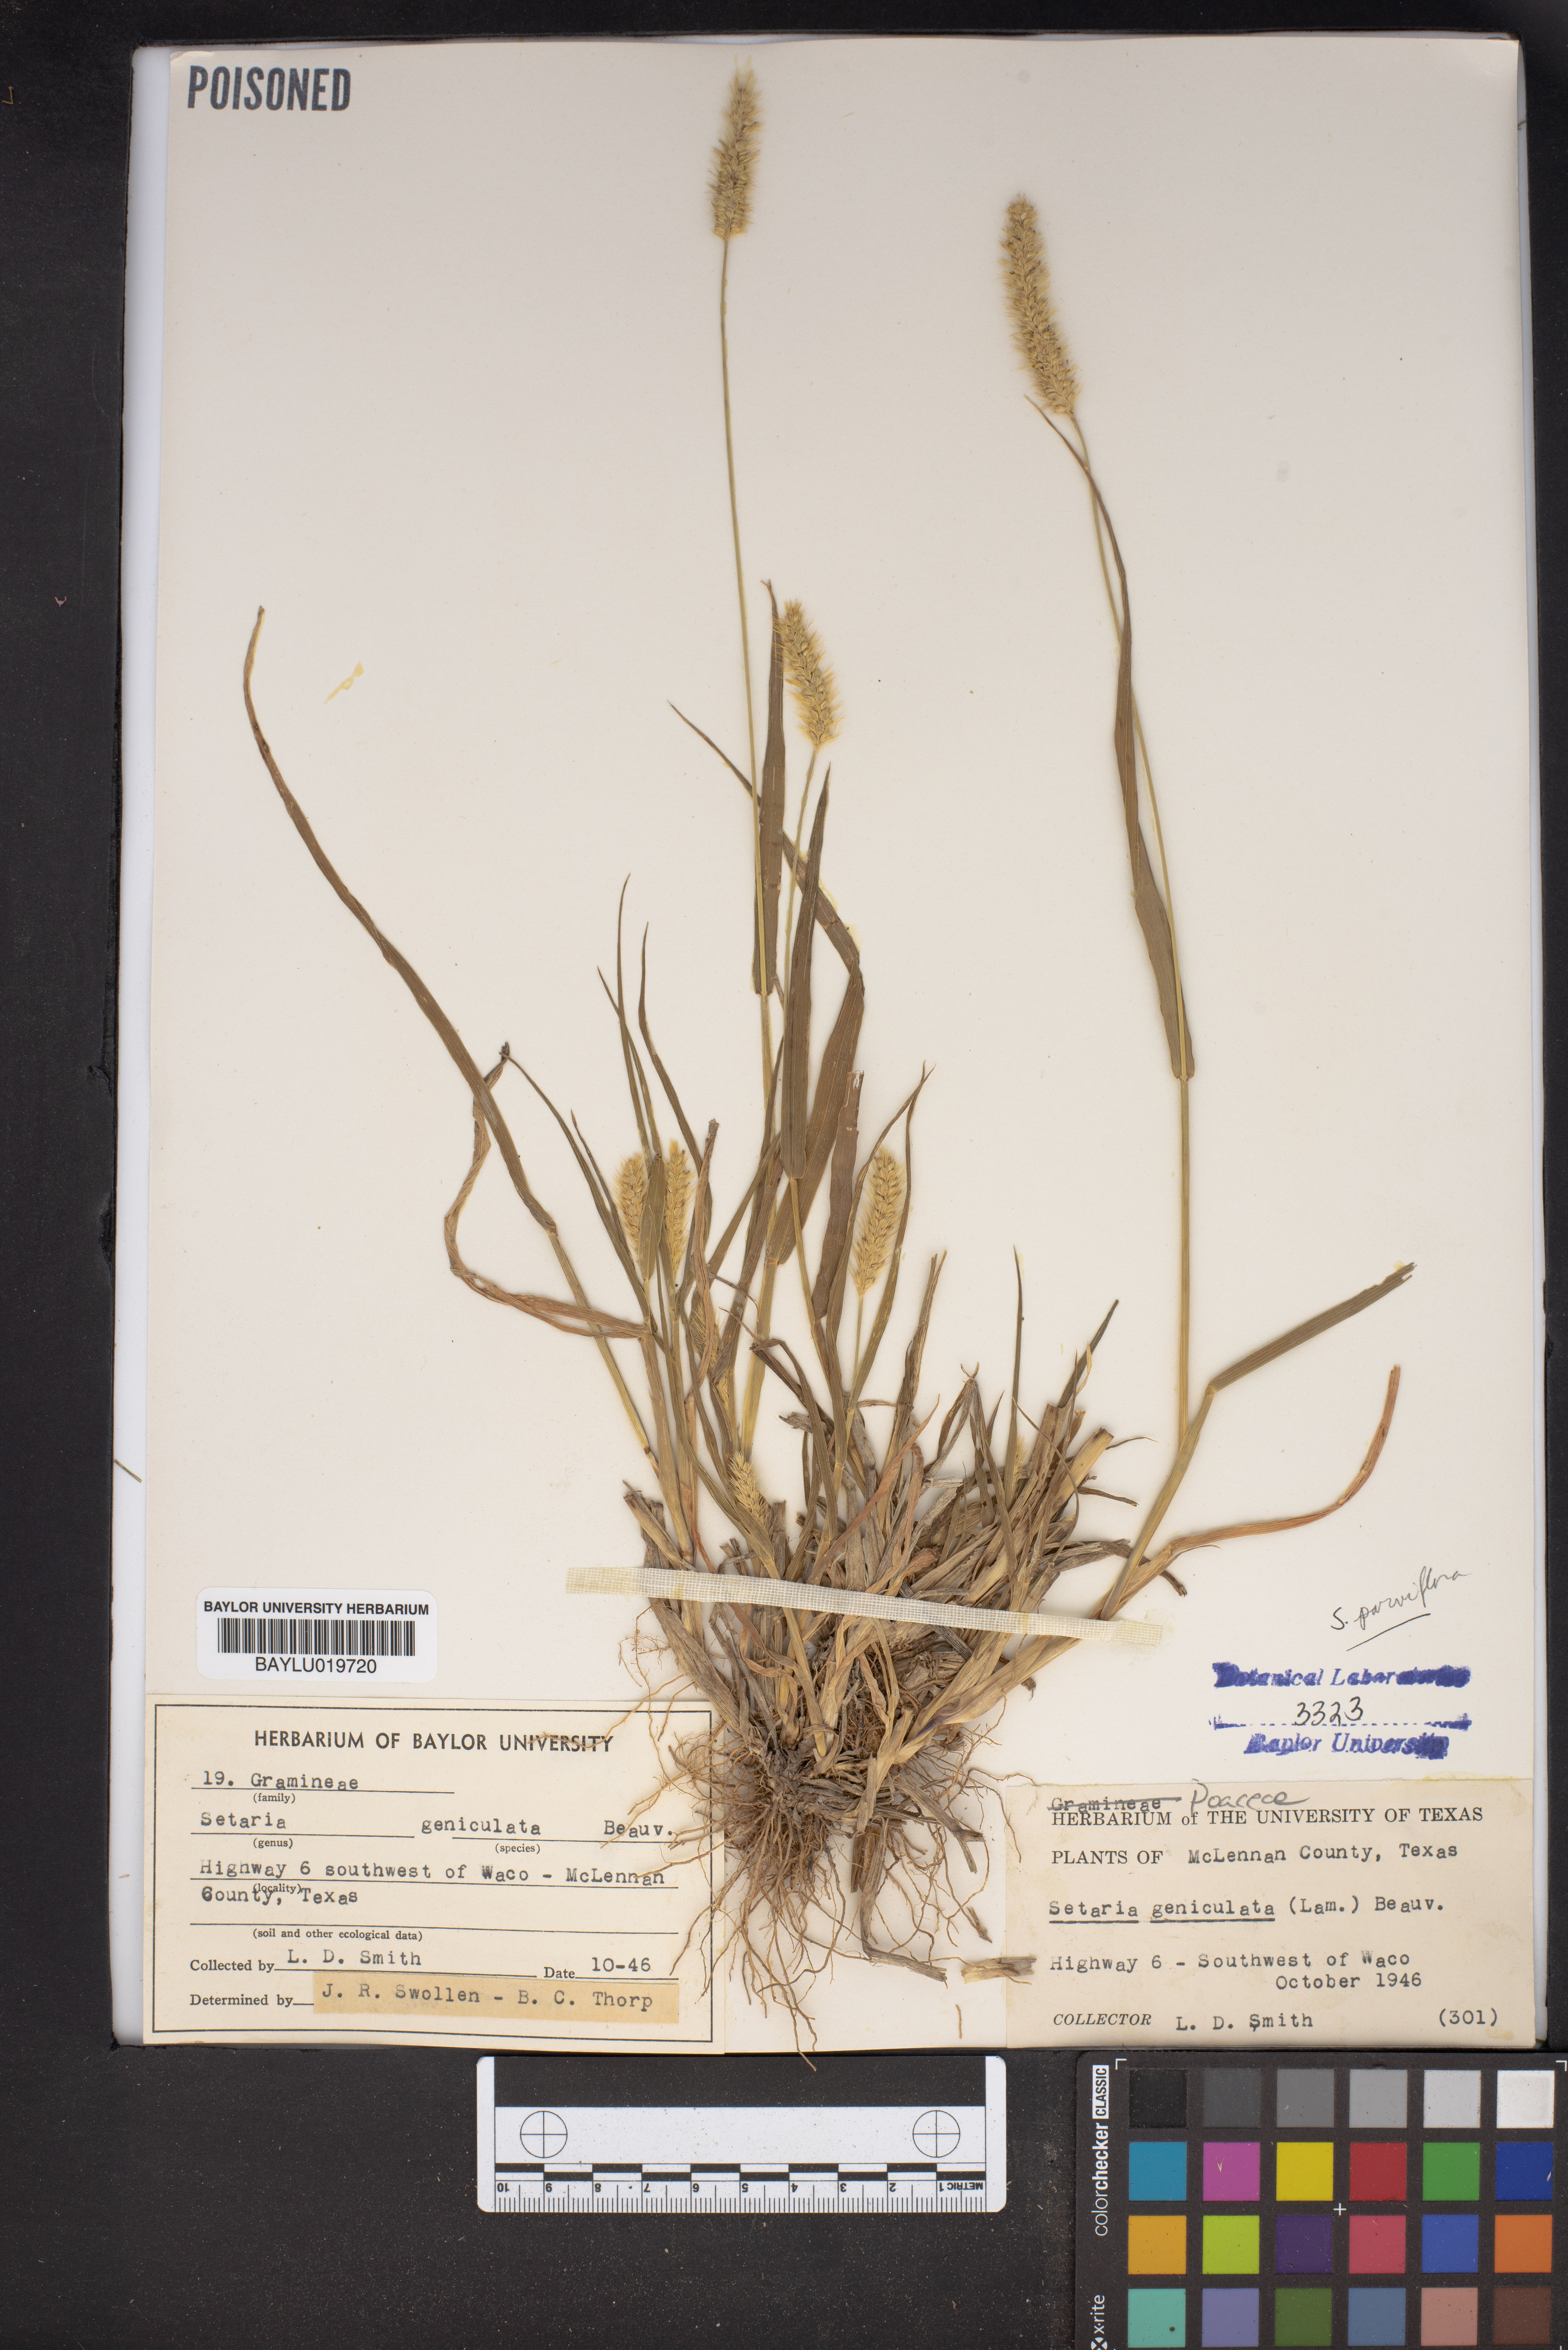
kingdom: Plantae
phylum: Tracheophyta
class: Liliopsida
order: Poales
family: Poaceae
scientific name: Poaceae
